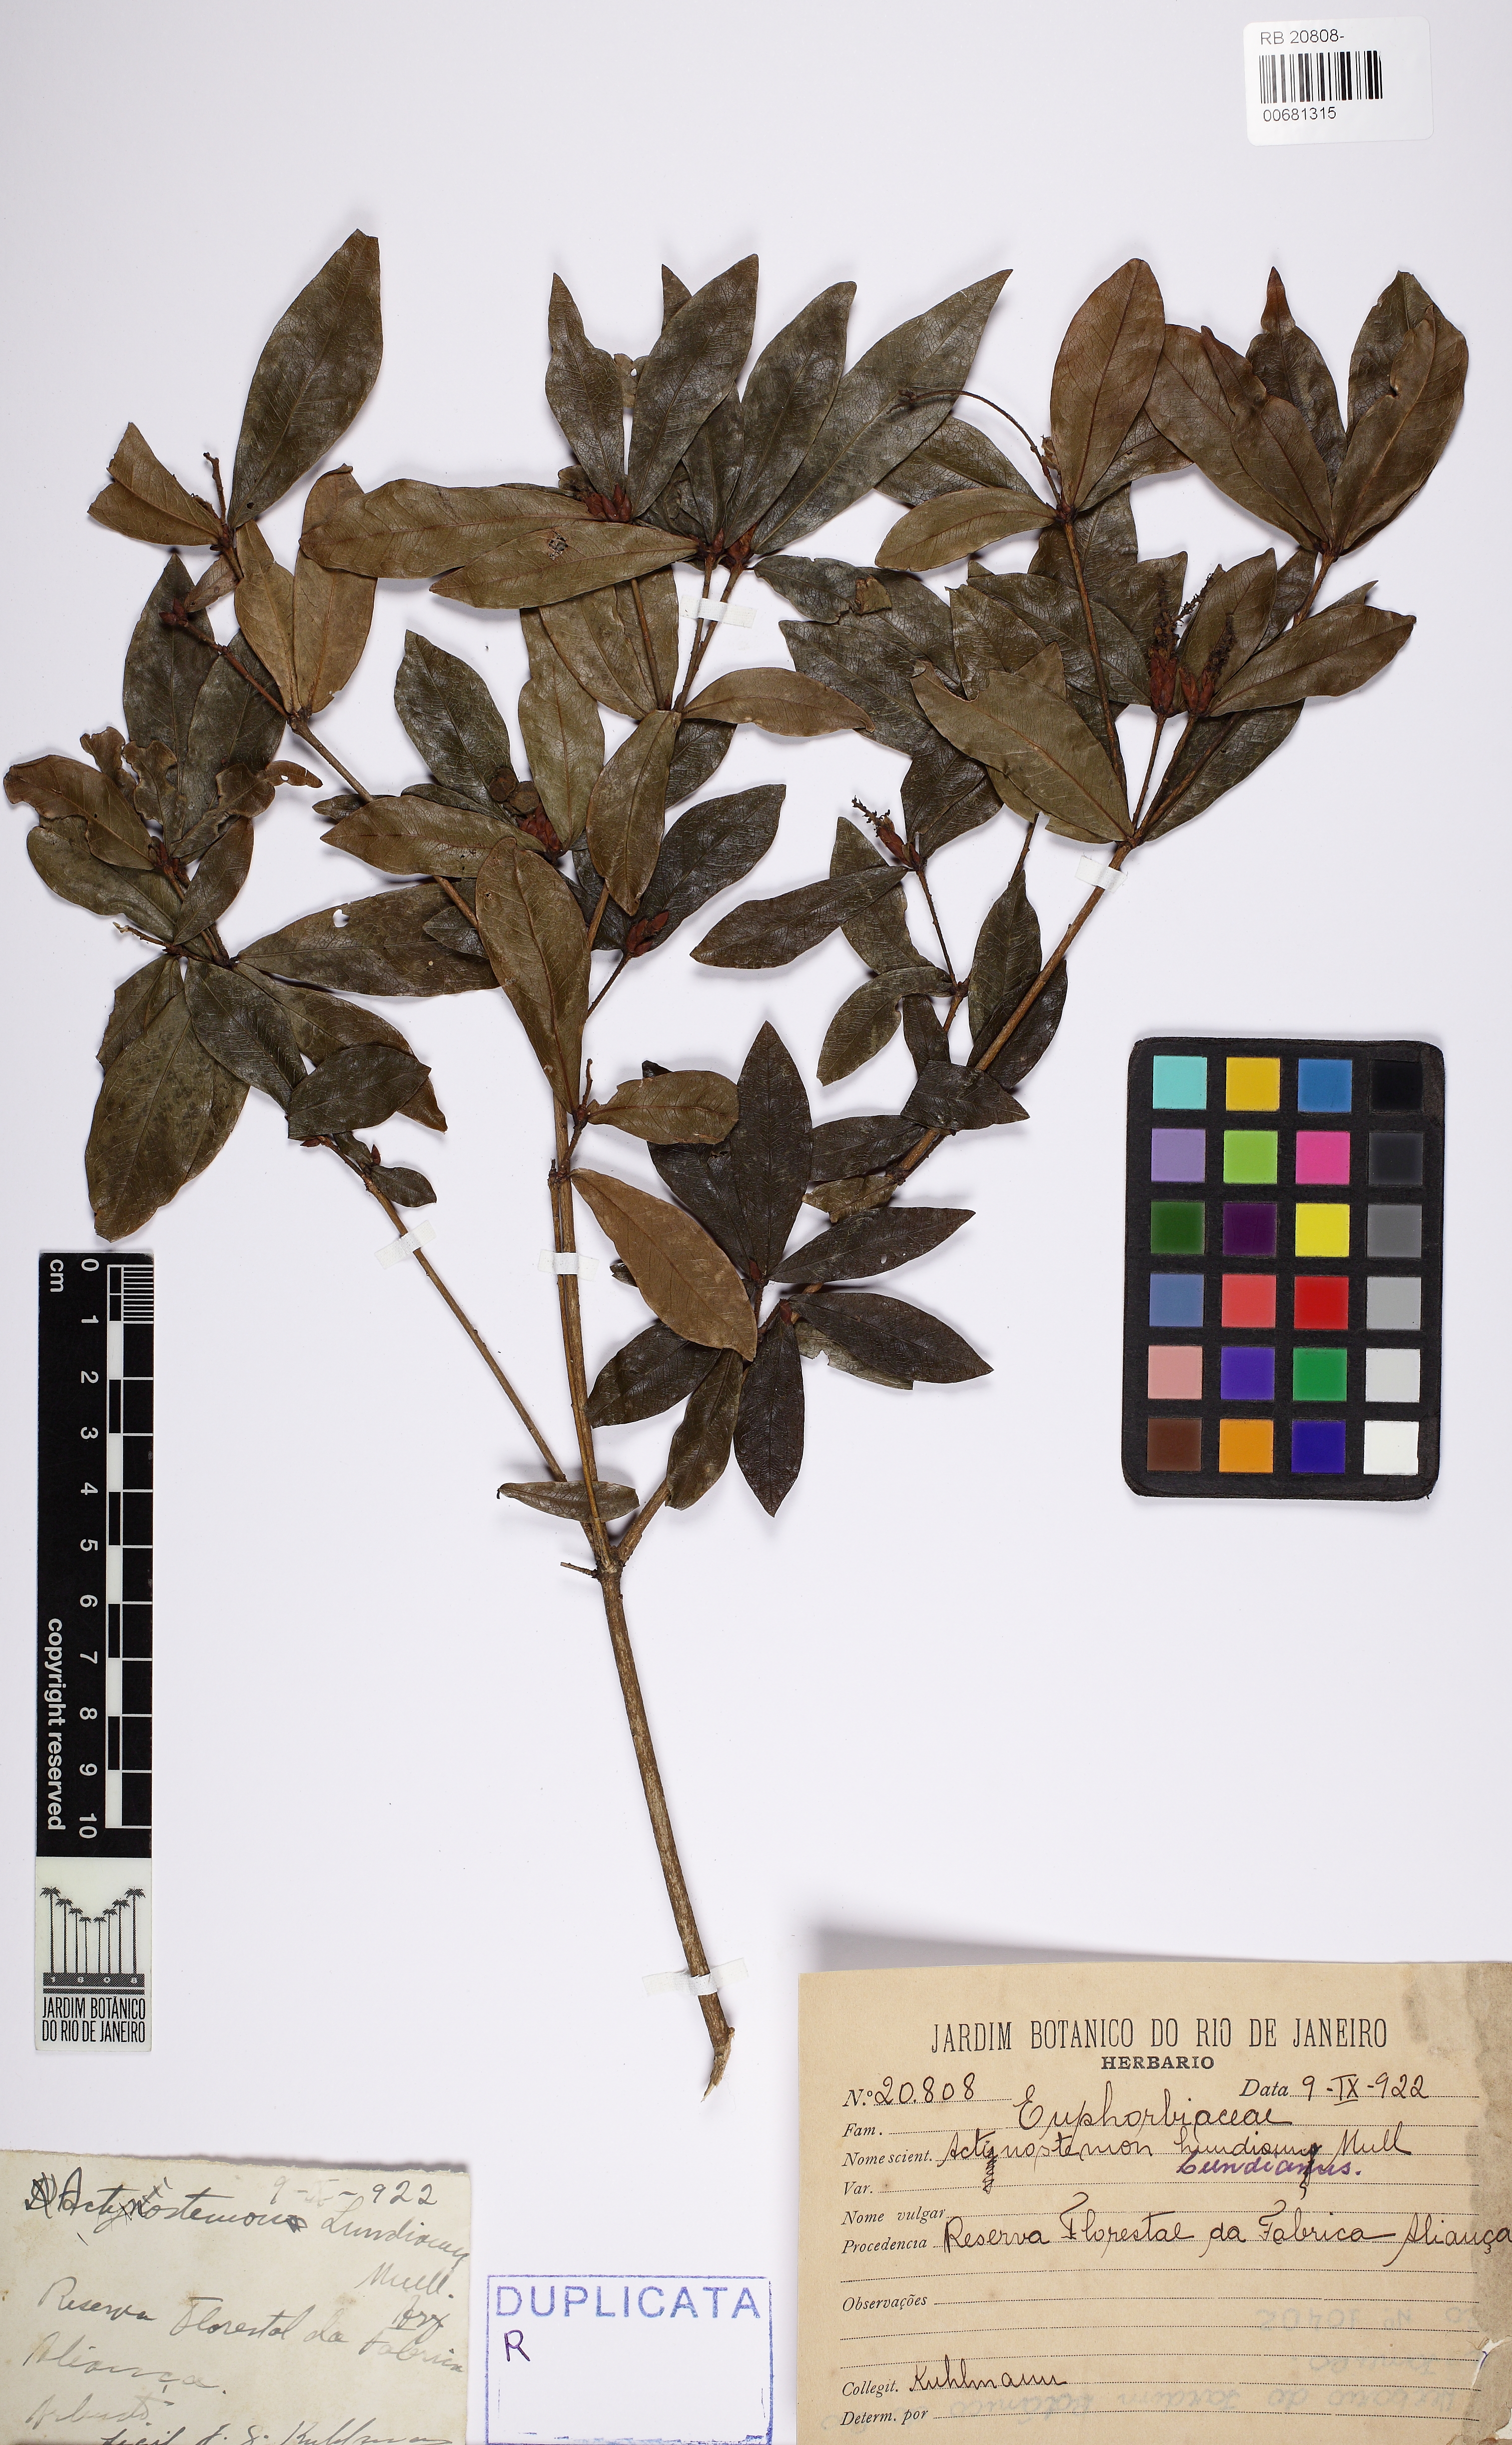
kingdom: Plantae
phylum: Tracheophyta
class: Magnoliopsida
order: Malpighiales
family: Euphorbiaceae
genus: Actinostemon
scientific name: Actinostemon klotzschii
